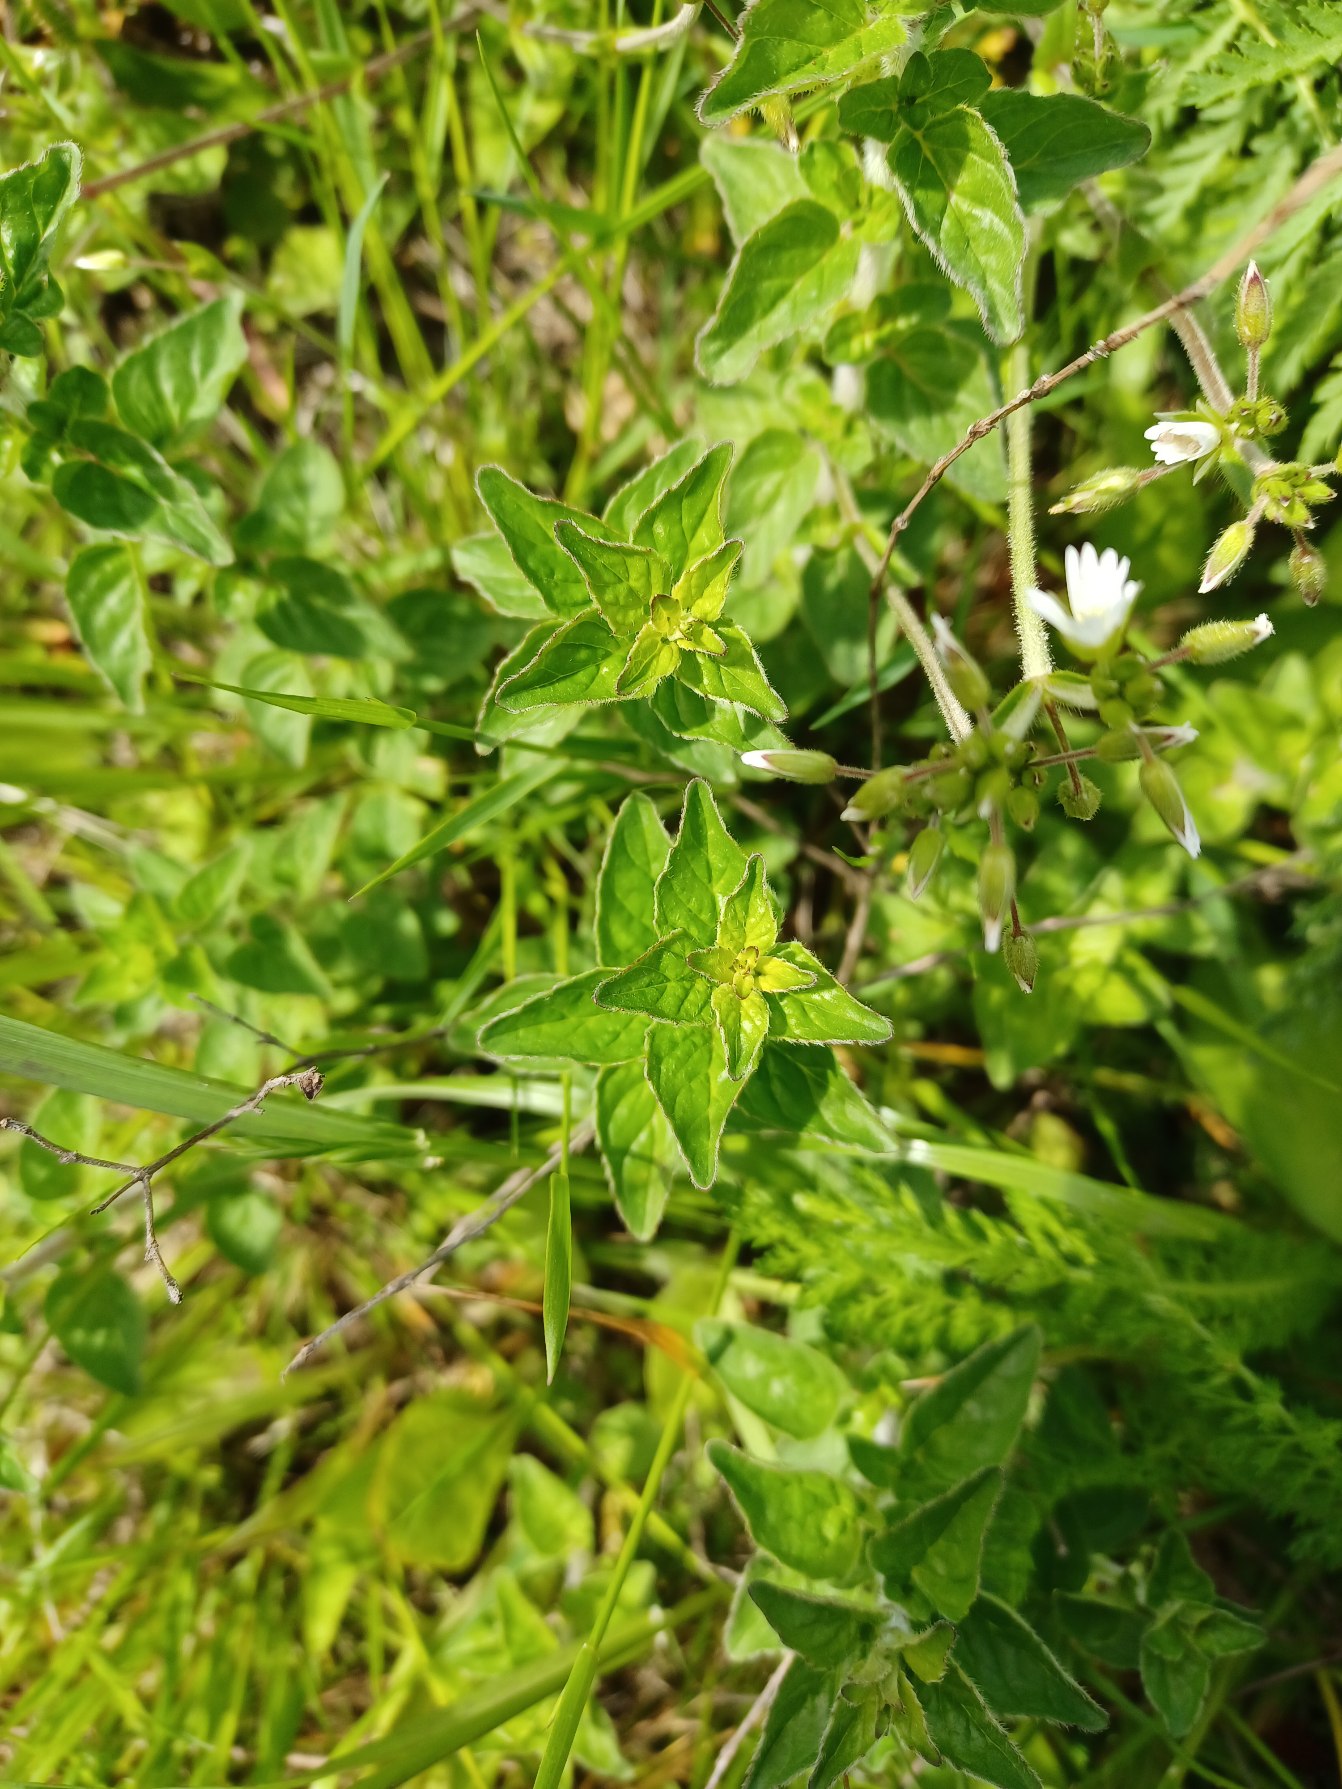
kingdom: Plantae
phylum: Tracheophyta
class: Magnoliopsida
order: Lamiales
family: Lamiaceae
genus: Origanum
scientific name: Origanum vulgare
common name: Merian
